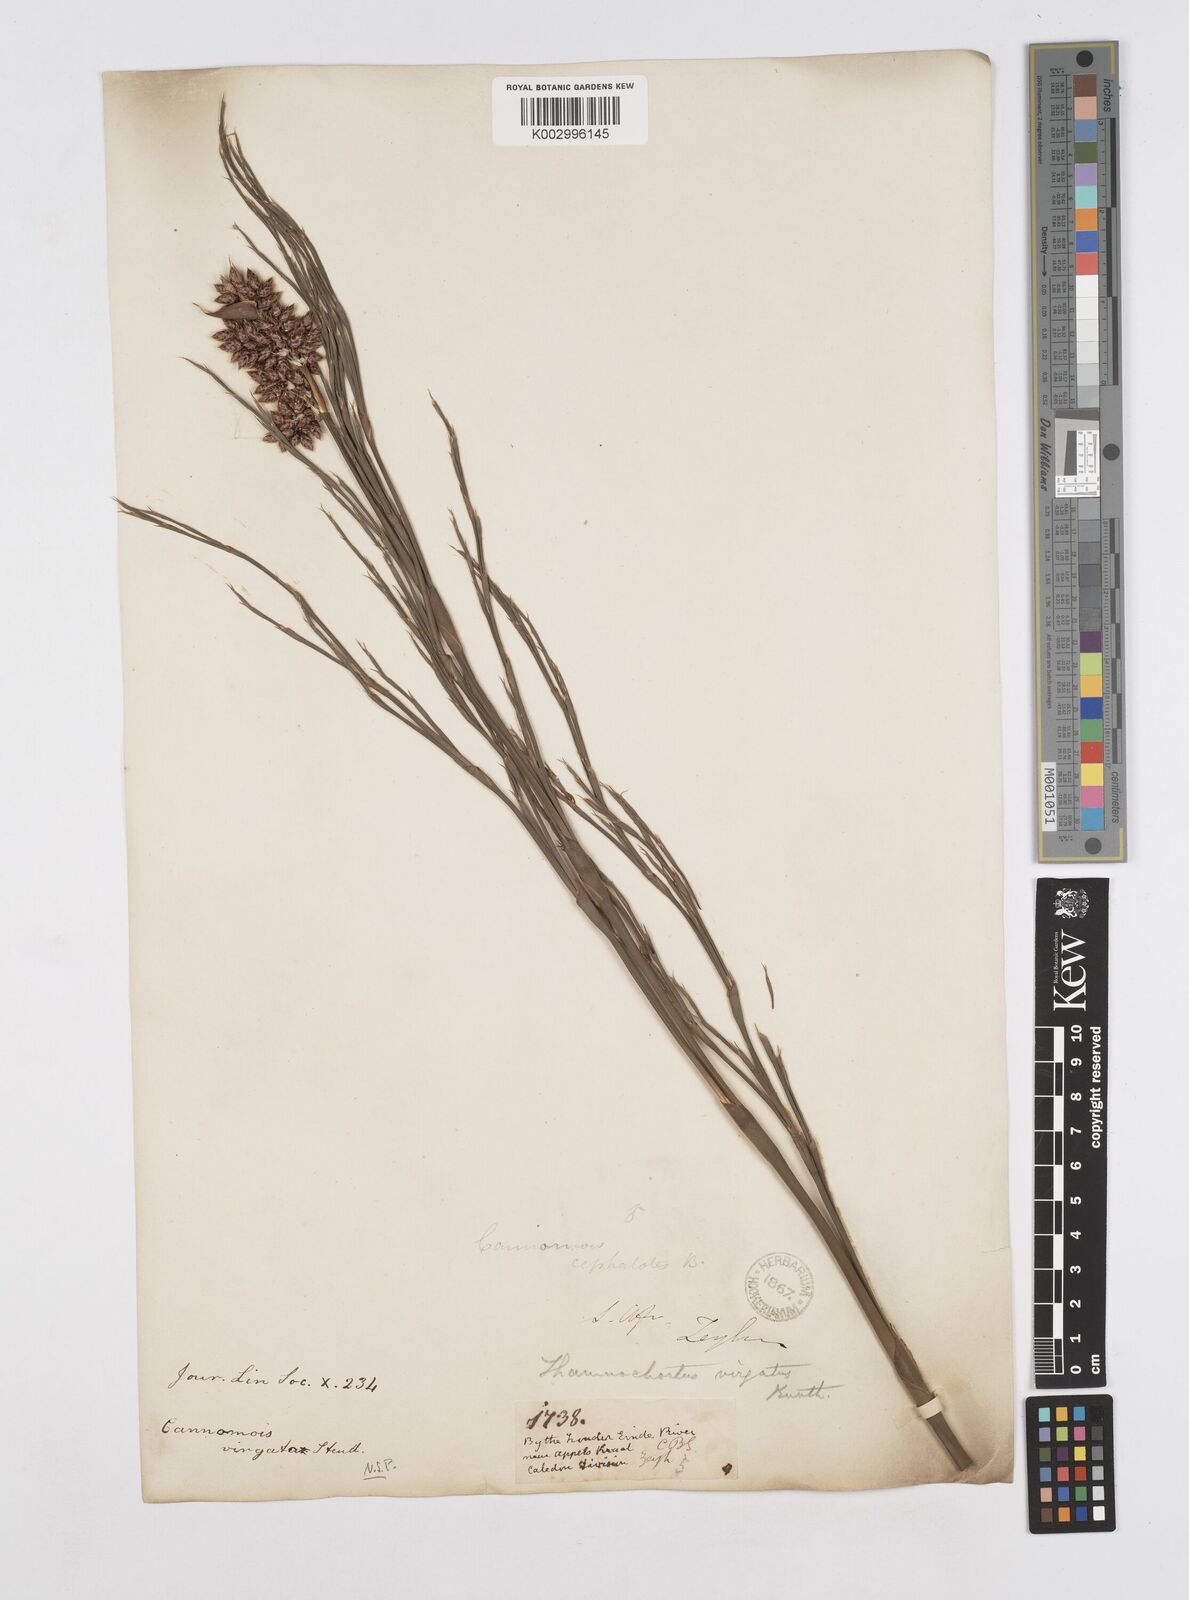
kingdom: Plantae
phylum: Tracheophyta
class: Liliopsida
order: Poales
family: Restionaceae
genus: Cannomois
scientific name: Cannomois virgata
